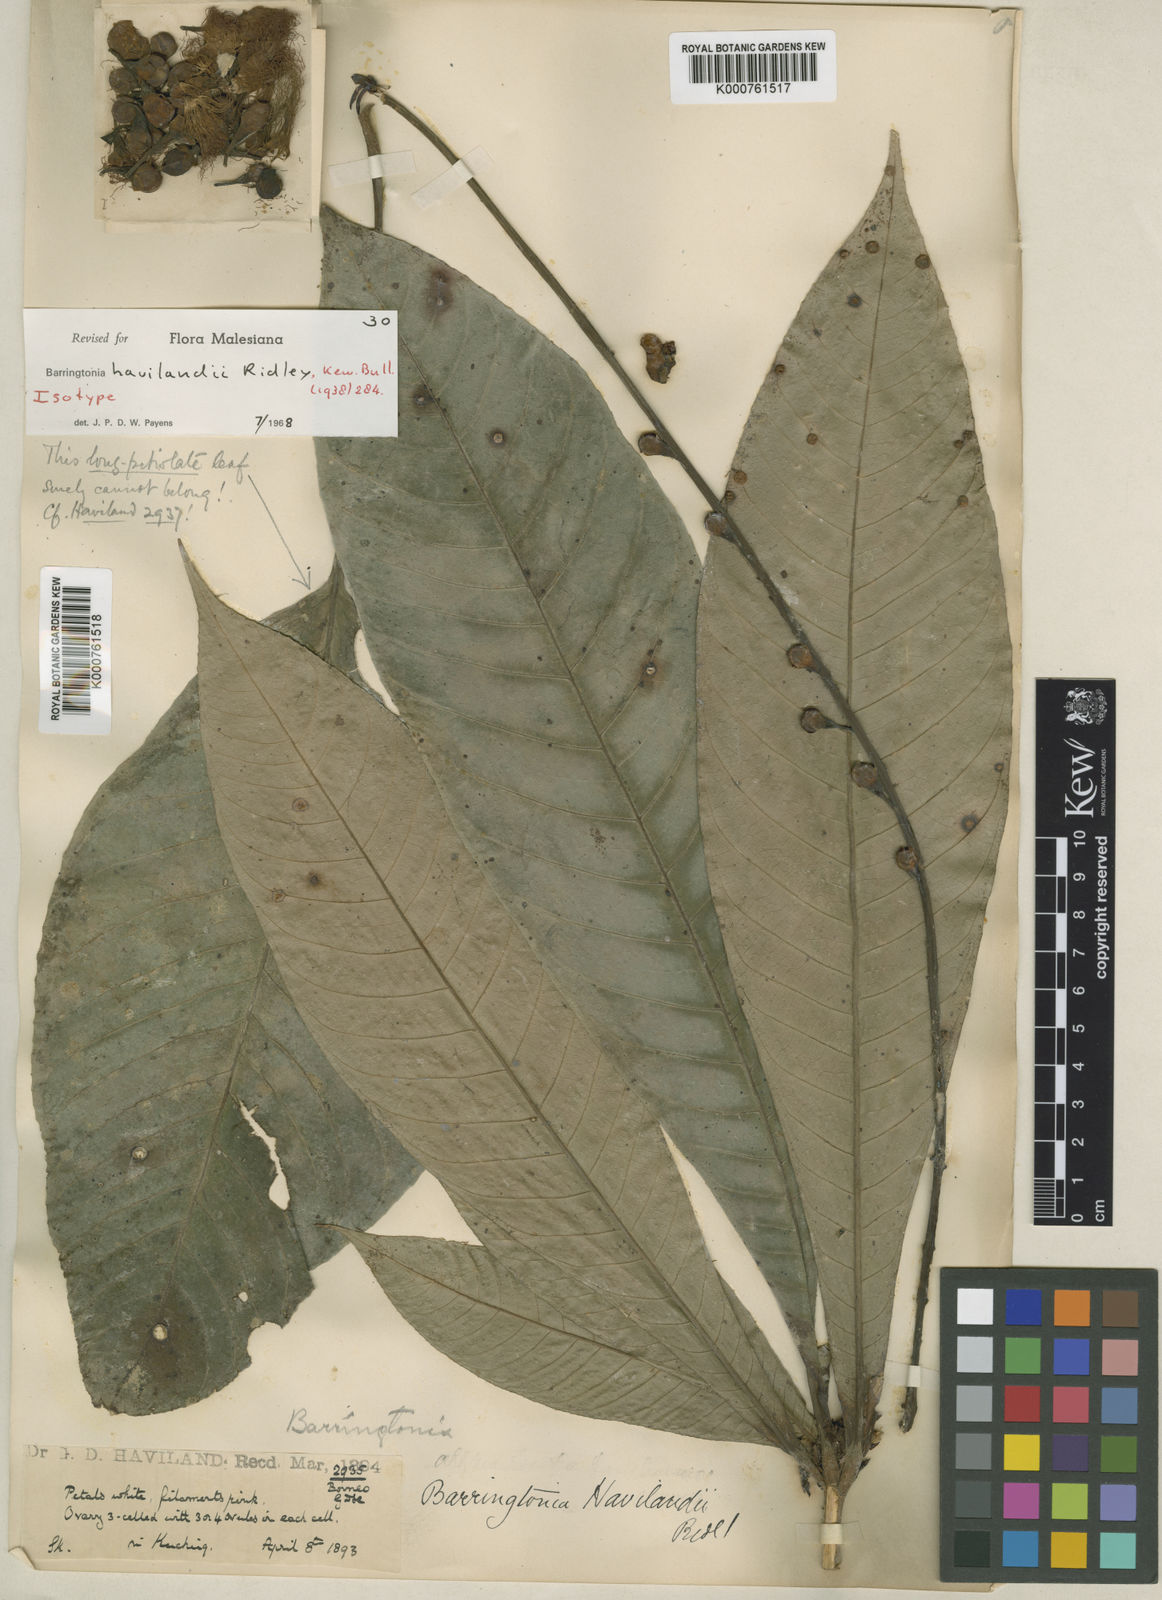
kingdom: Plantae
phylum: Tracheophyta
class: Magnoliopsida
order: Ericales
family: Lecythidaceae
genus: Barringtonia
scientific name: Barringtonia havilandii
